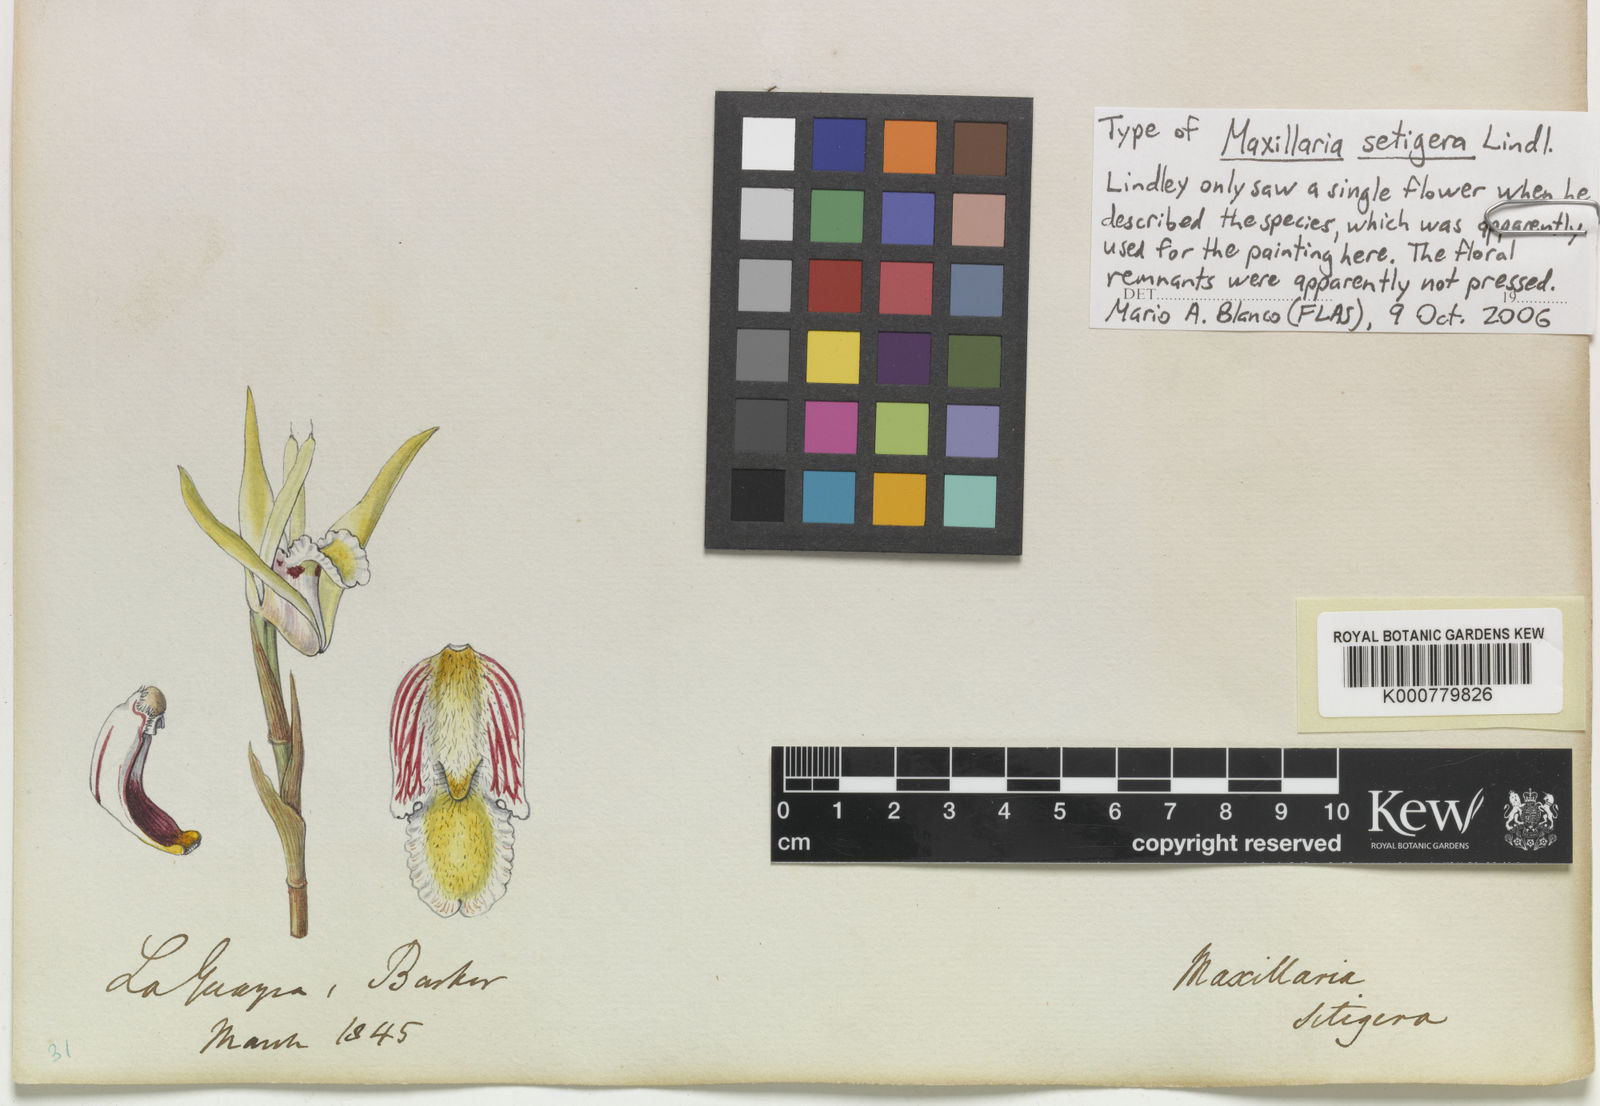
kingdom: Plantae
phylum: Tracheophyta
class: Liliopsida
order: Asparagales
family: Orchidaceae
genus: Maxillaria
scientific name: Maxillaria setigera
